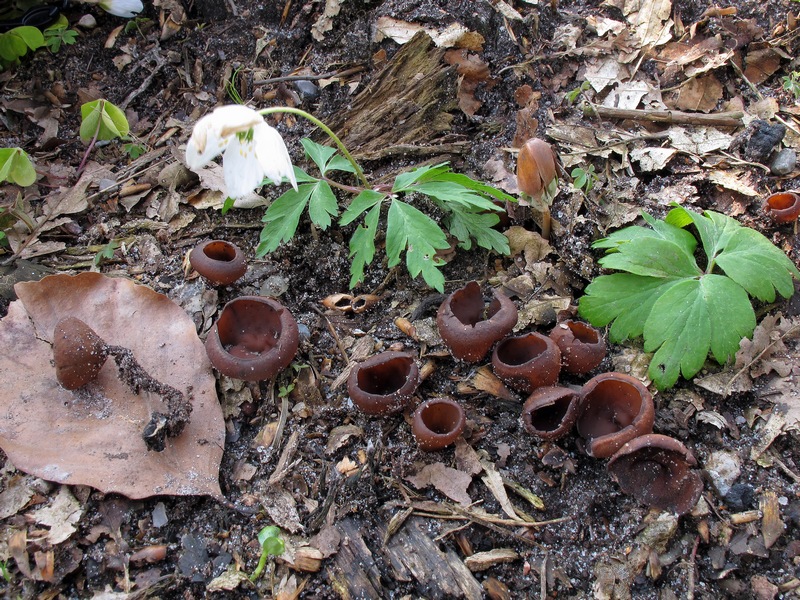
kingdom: Fungi
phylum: Ascomycota
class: Leotiomycetes
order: Helotiales
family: Sclerotiniaceae
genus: Dumontinia
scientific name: Dumontinia tuberosa
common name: anemone-knoldskive
